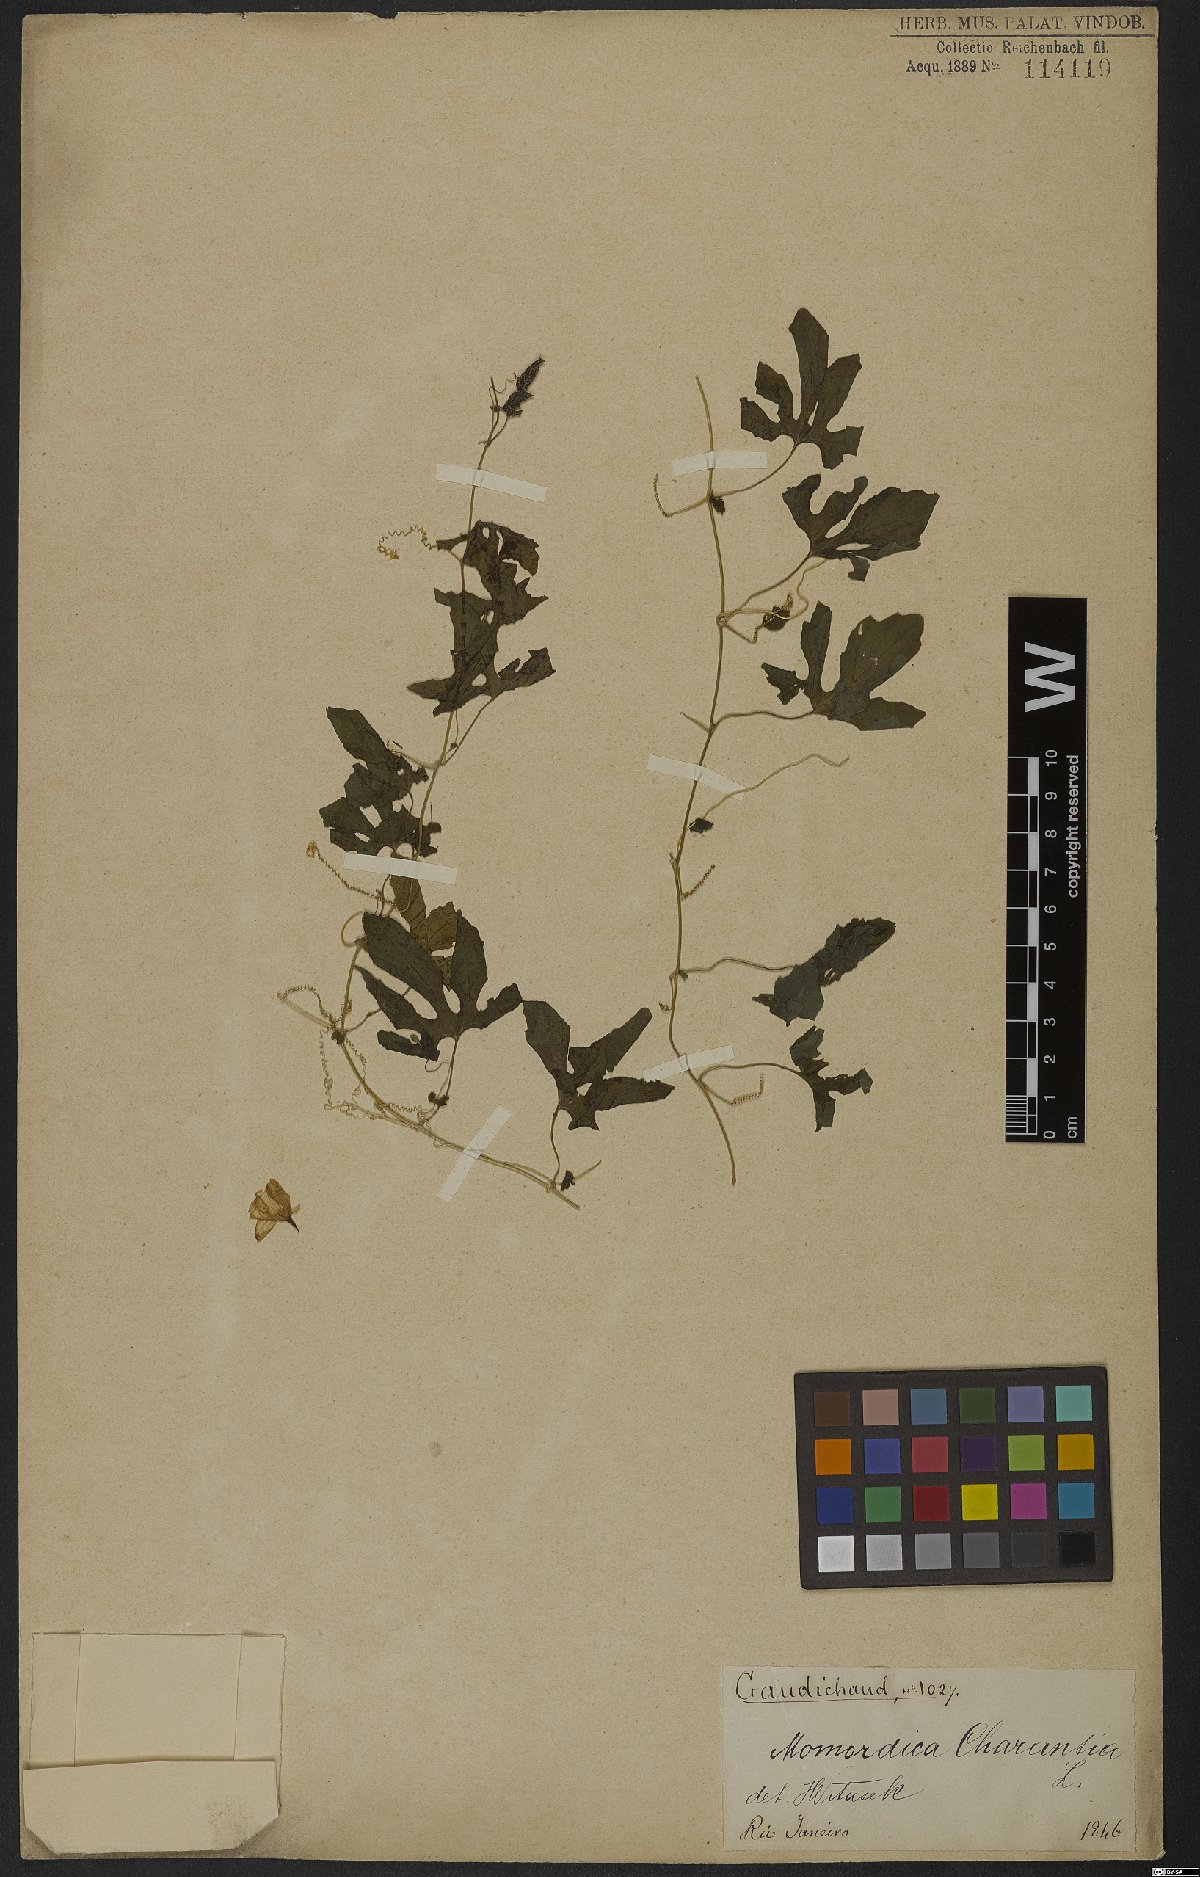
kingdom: Plantae
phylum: Tracheophyta
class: Magnoliopsida
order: Cucurbitales
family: Cucurbitaceae
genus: Momordica
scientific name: Momordica charantia
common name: Balsampear
